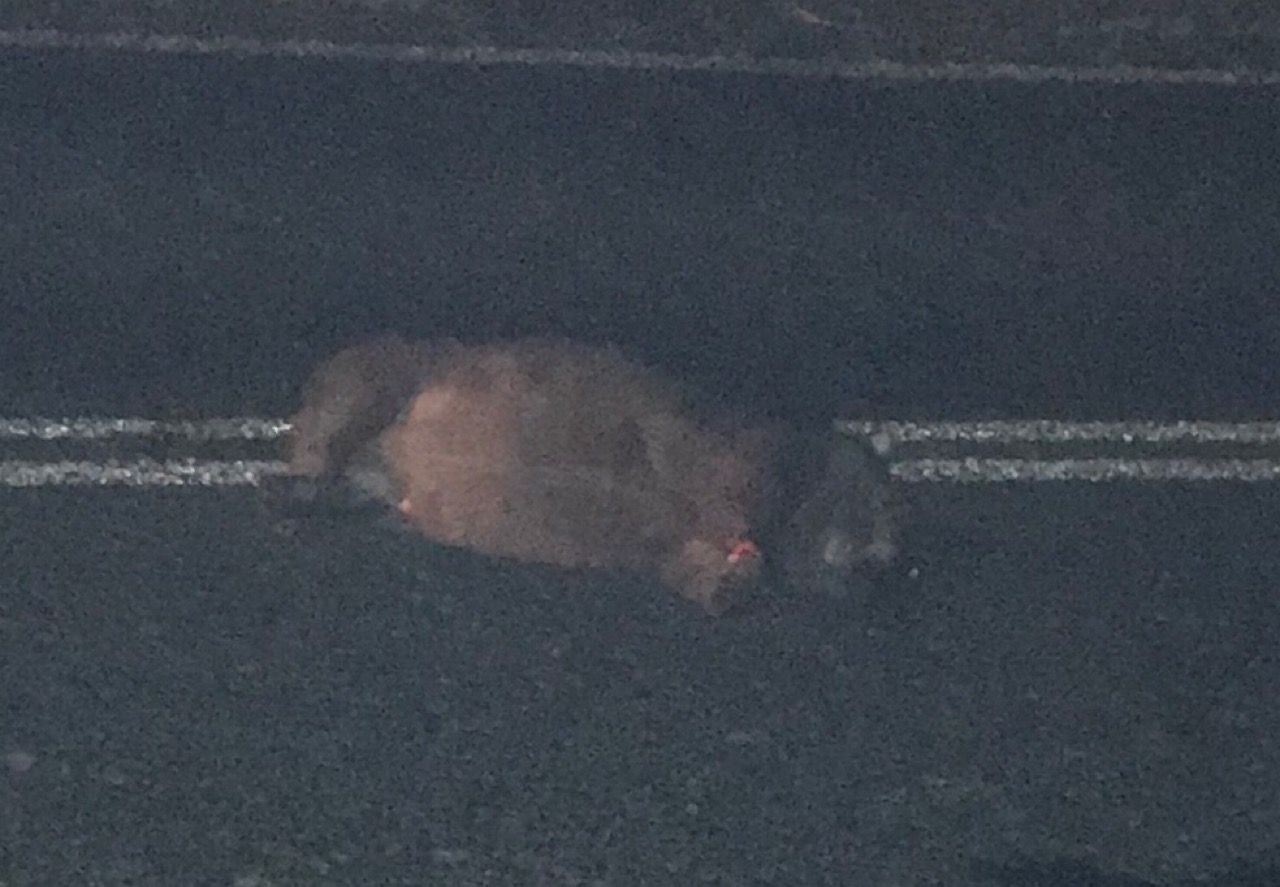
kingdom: Animalia
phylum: Chordata
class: Mammalia
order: Diprotodontia
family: Vombatidae
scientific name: Vombatidae
